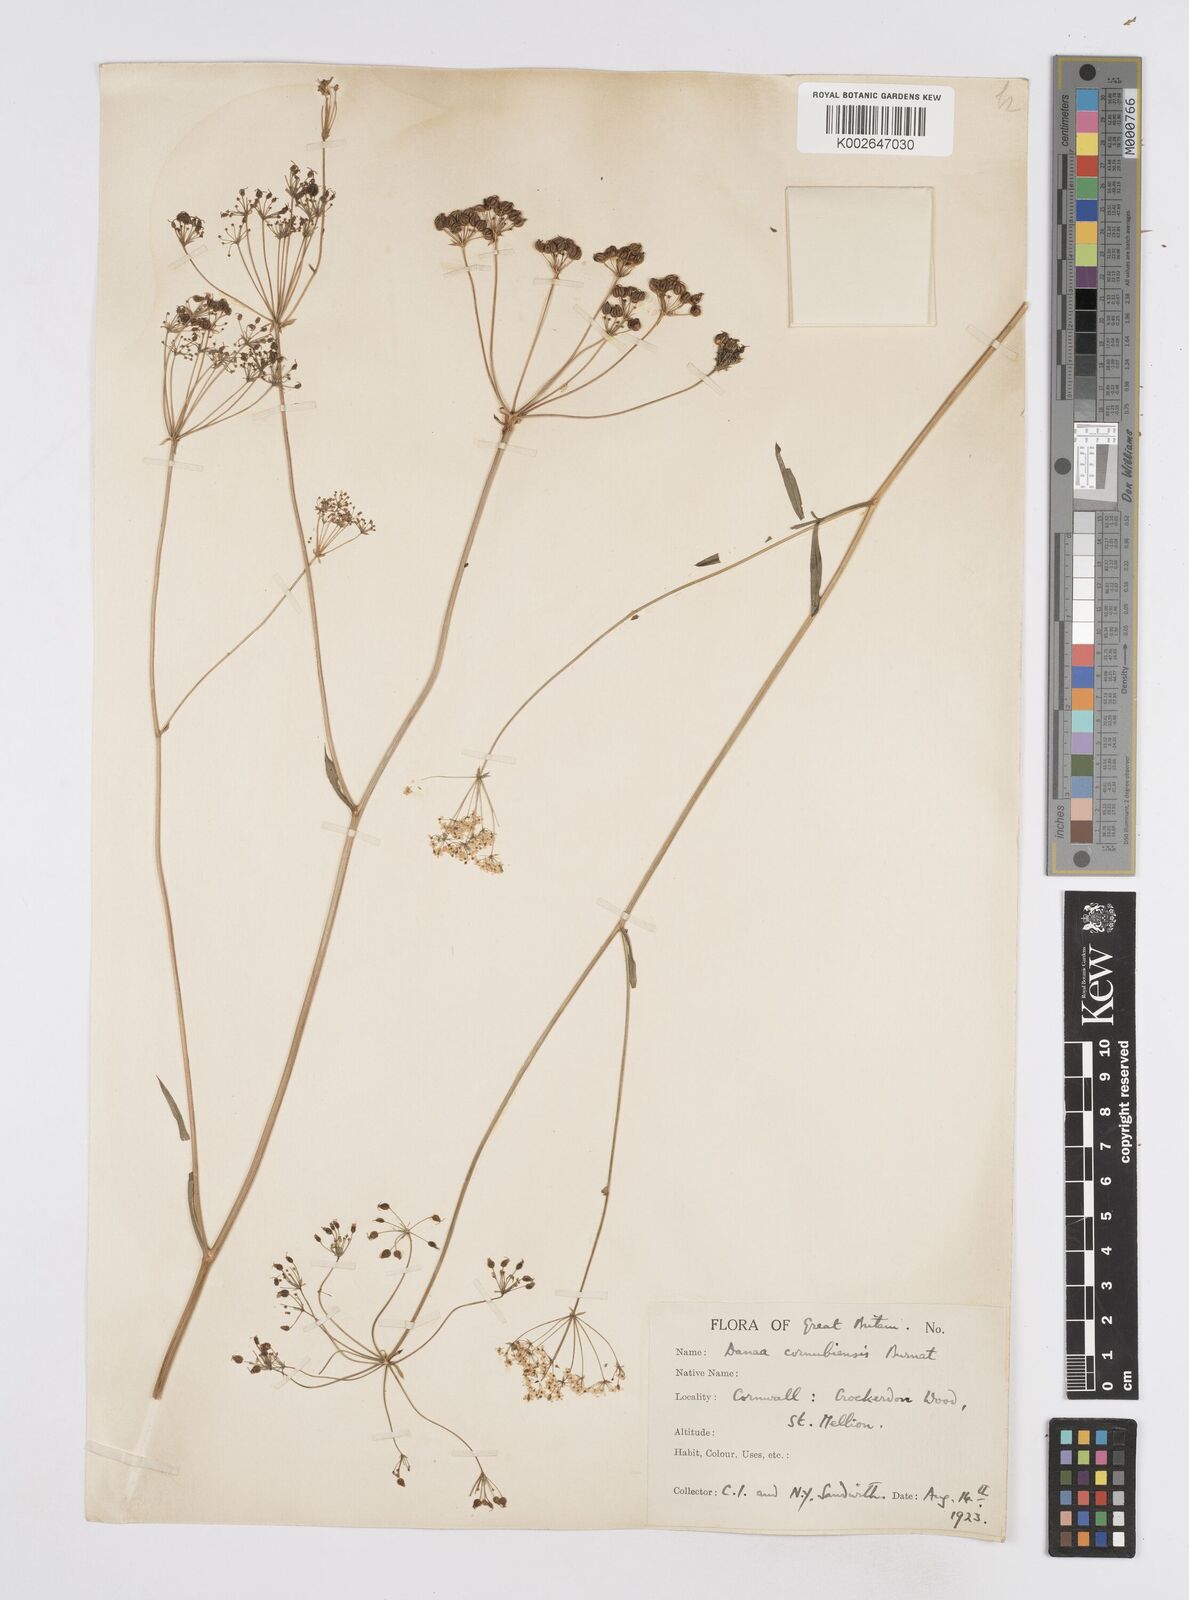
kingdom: Plantae
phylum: Tracheophyta
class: Magnoliopsida
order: Apiales
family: Apiaceae
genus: Physospermum
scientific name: Physospermum cornubiense
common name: Bladderseed
